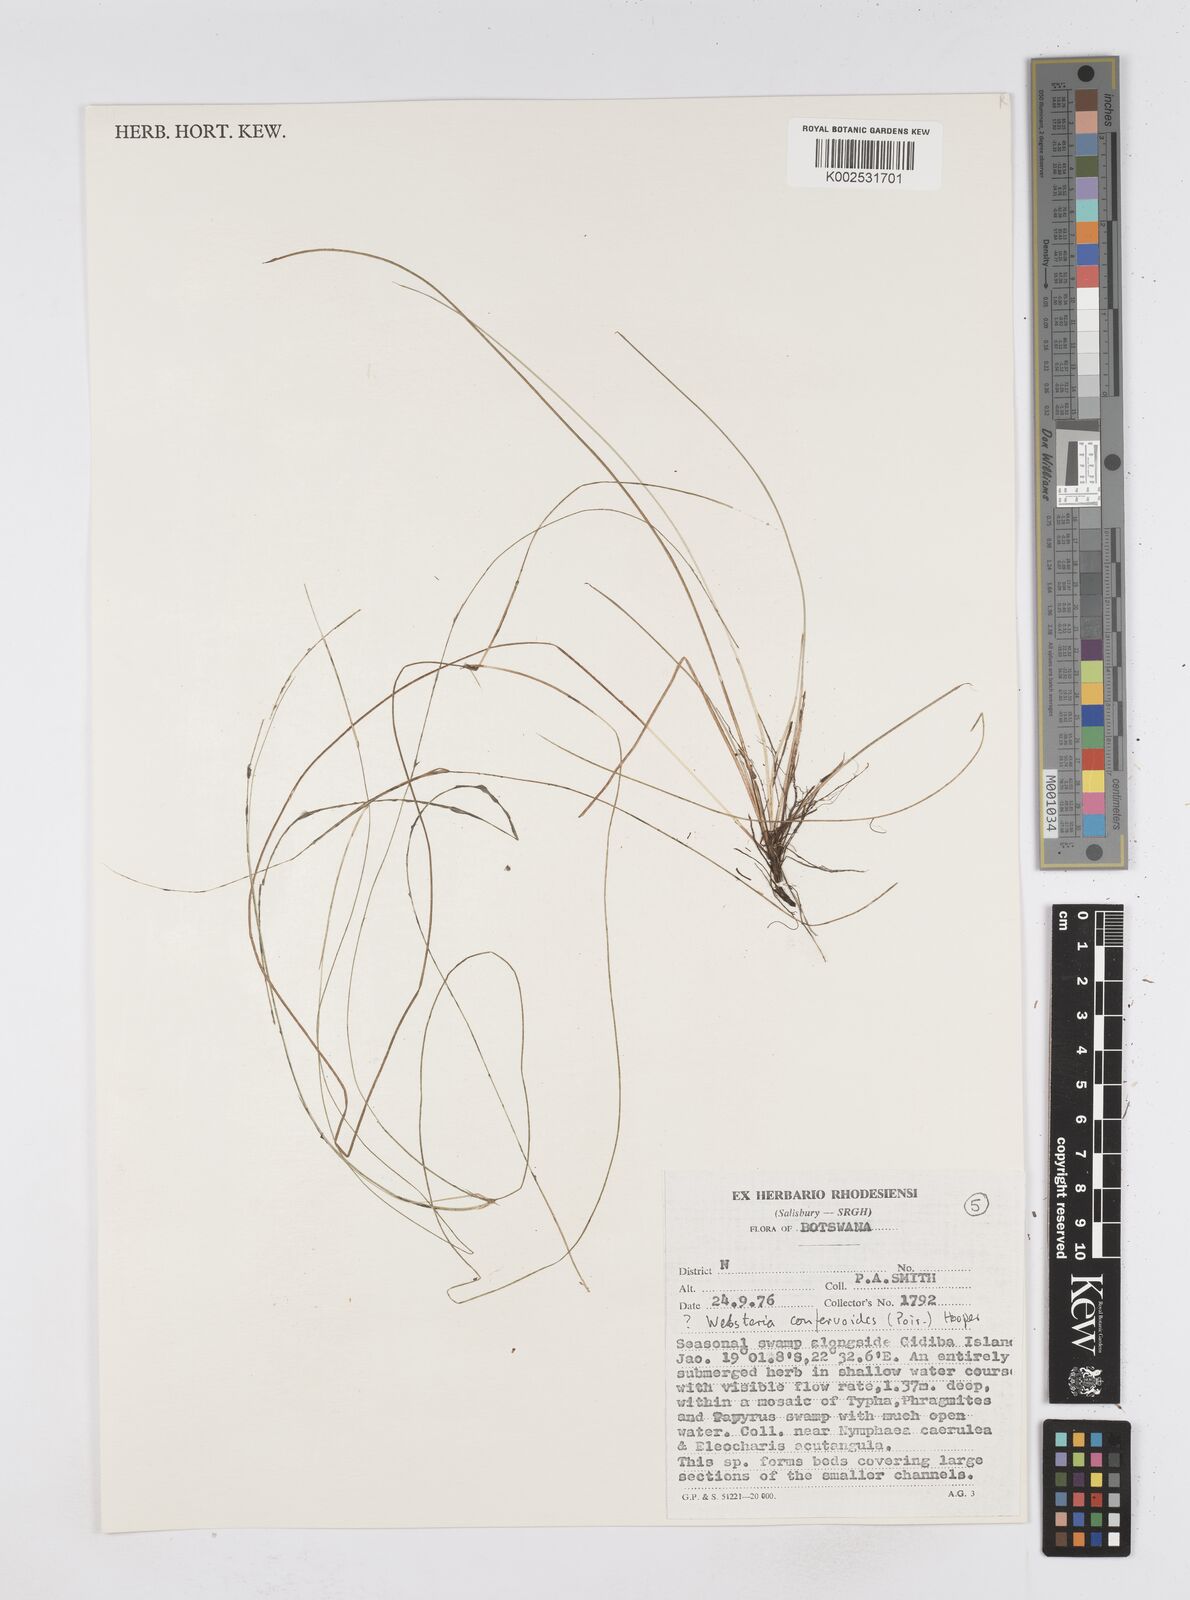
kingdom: Plantae
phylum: Tracheophyta
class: Liliopsida
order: Poales
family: Cyperaceae
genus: Eleocharis
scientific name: Eleocharis confervoides
